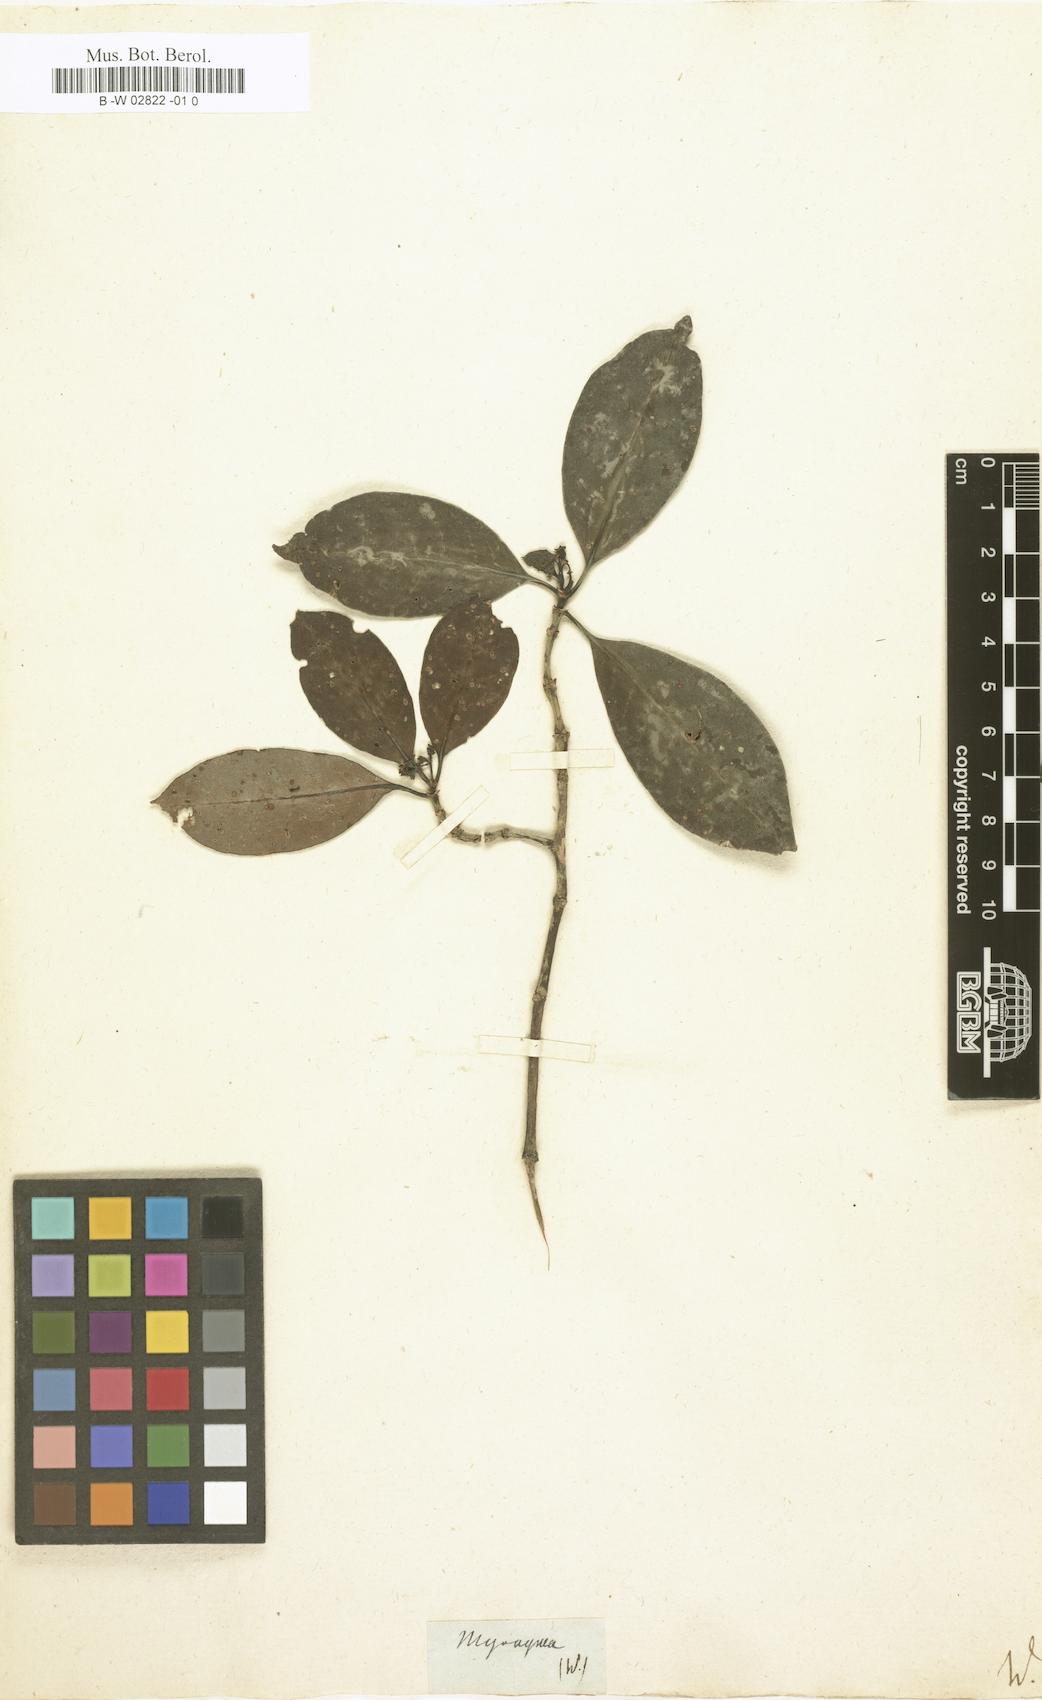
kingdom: Plantae
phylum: Tracheophyta
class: Magnoliopsida
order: Gentianales
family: Rubiaceae
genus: Ixora
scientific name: Ixora Myonima oblongifolia
